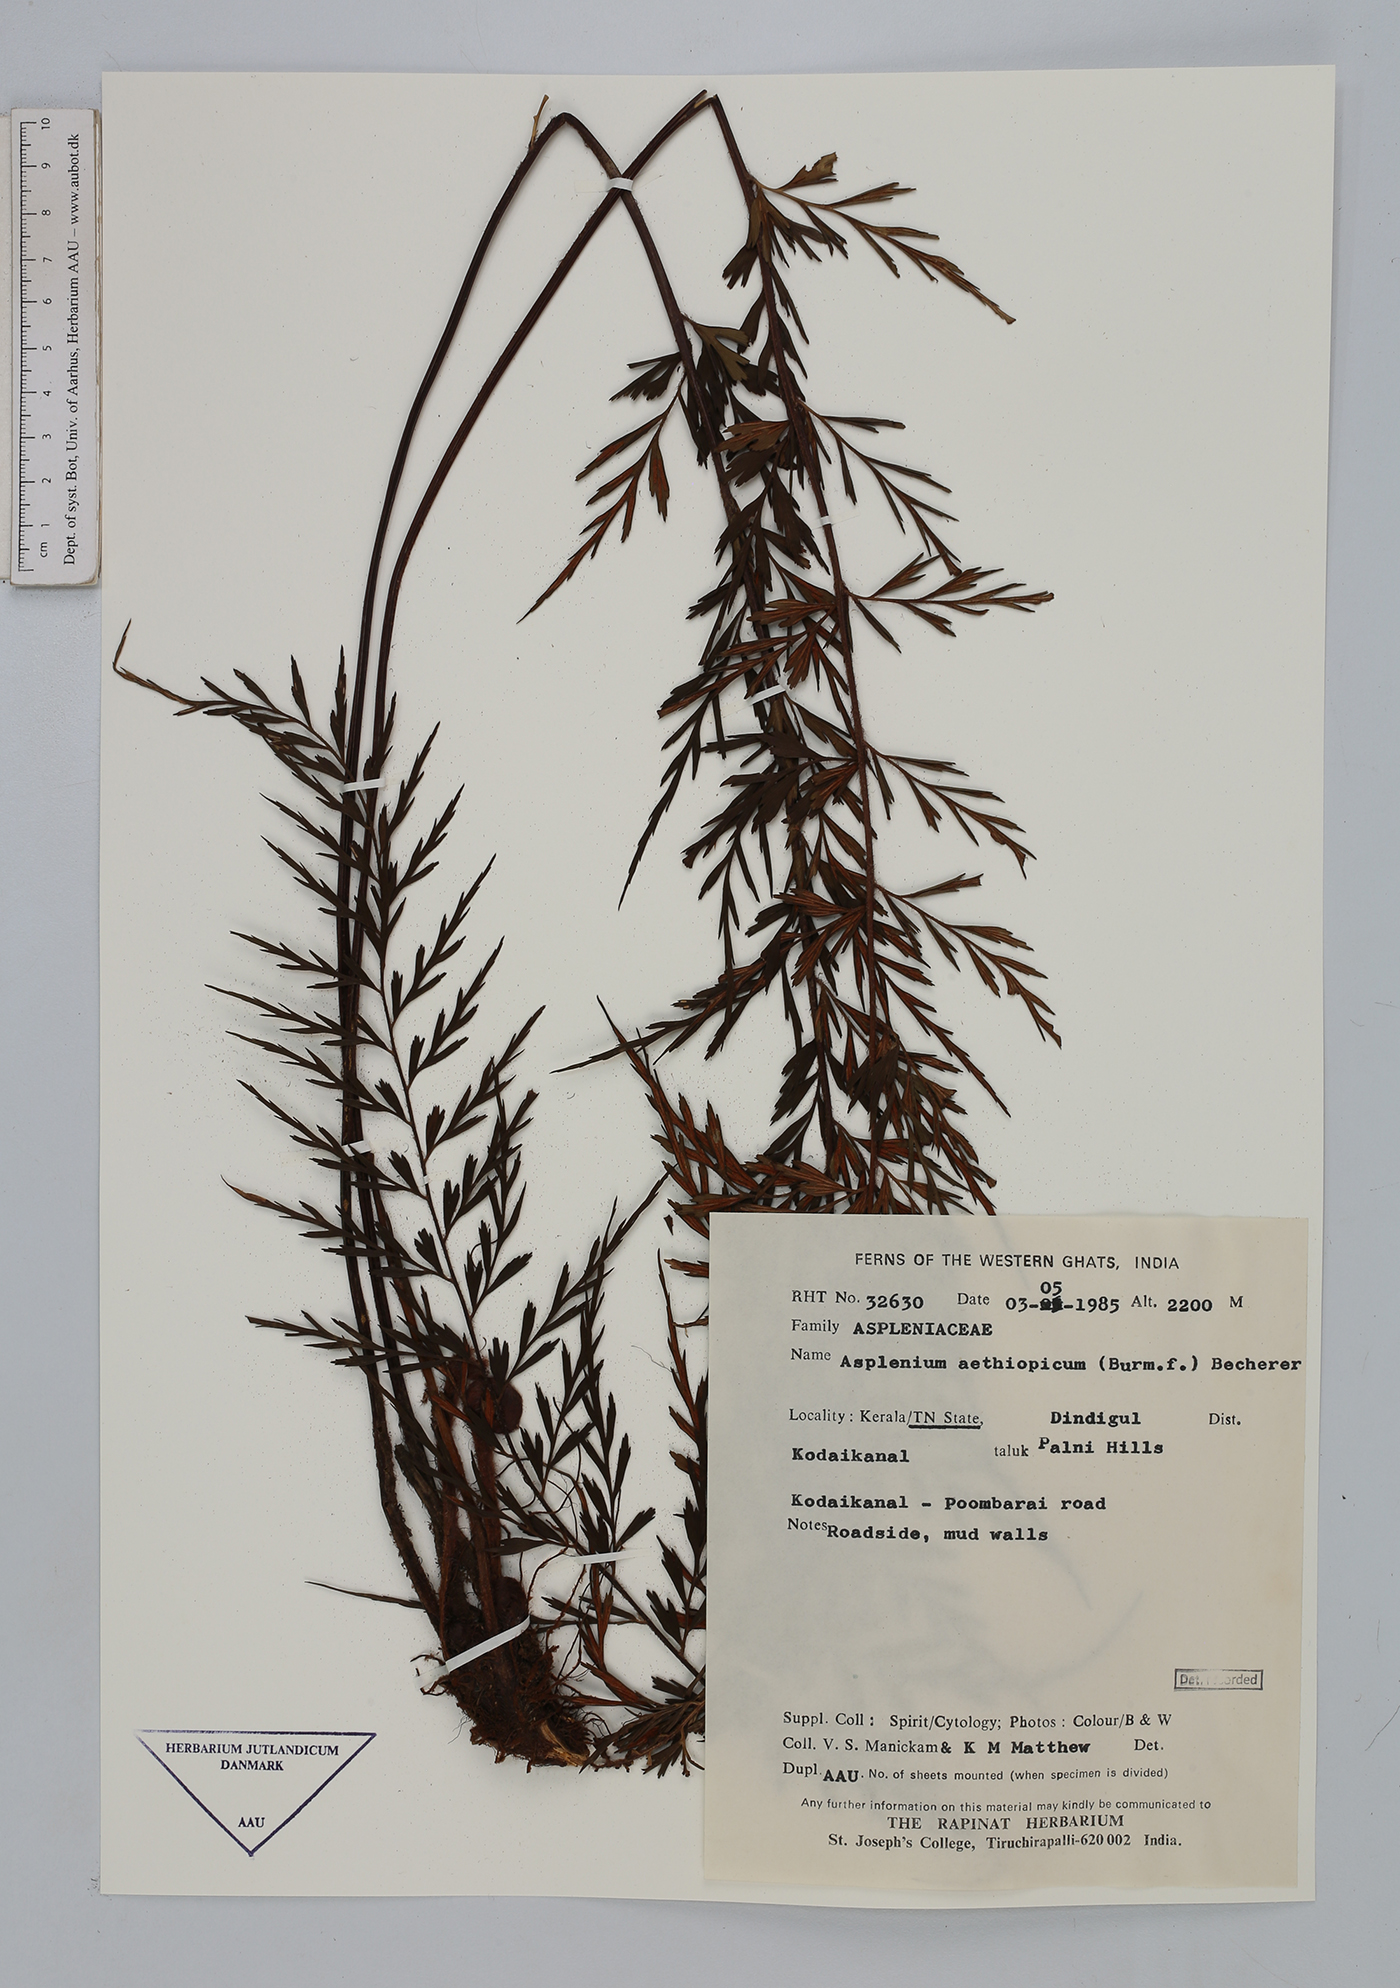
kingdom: Plantae
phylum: Tracheophyta
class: Polypodiopsida
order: Polypodiales
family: Aspleniaceae
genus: Asplenium
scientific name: Asplenium aethiopicum
